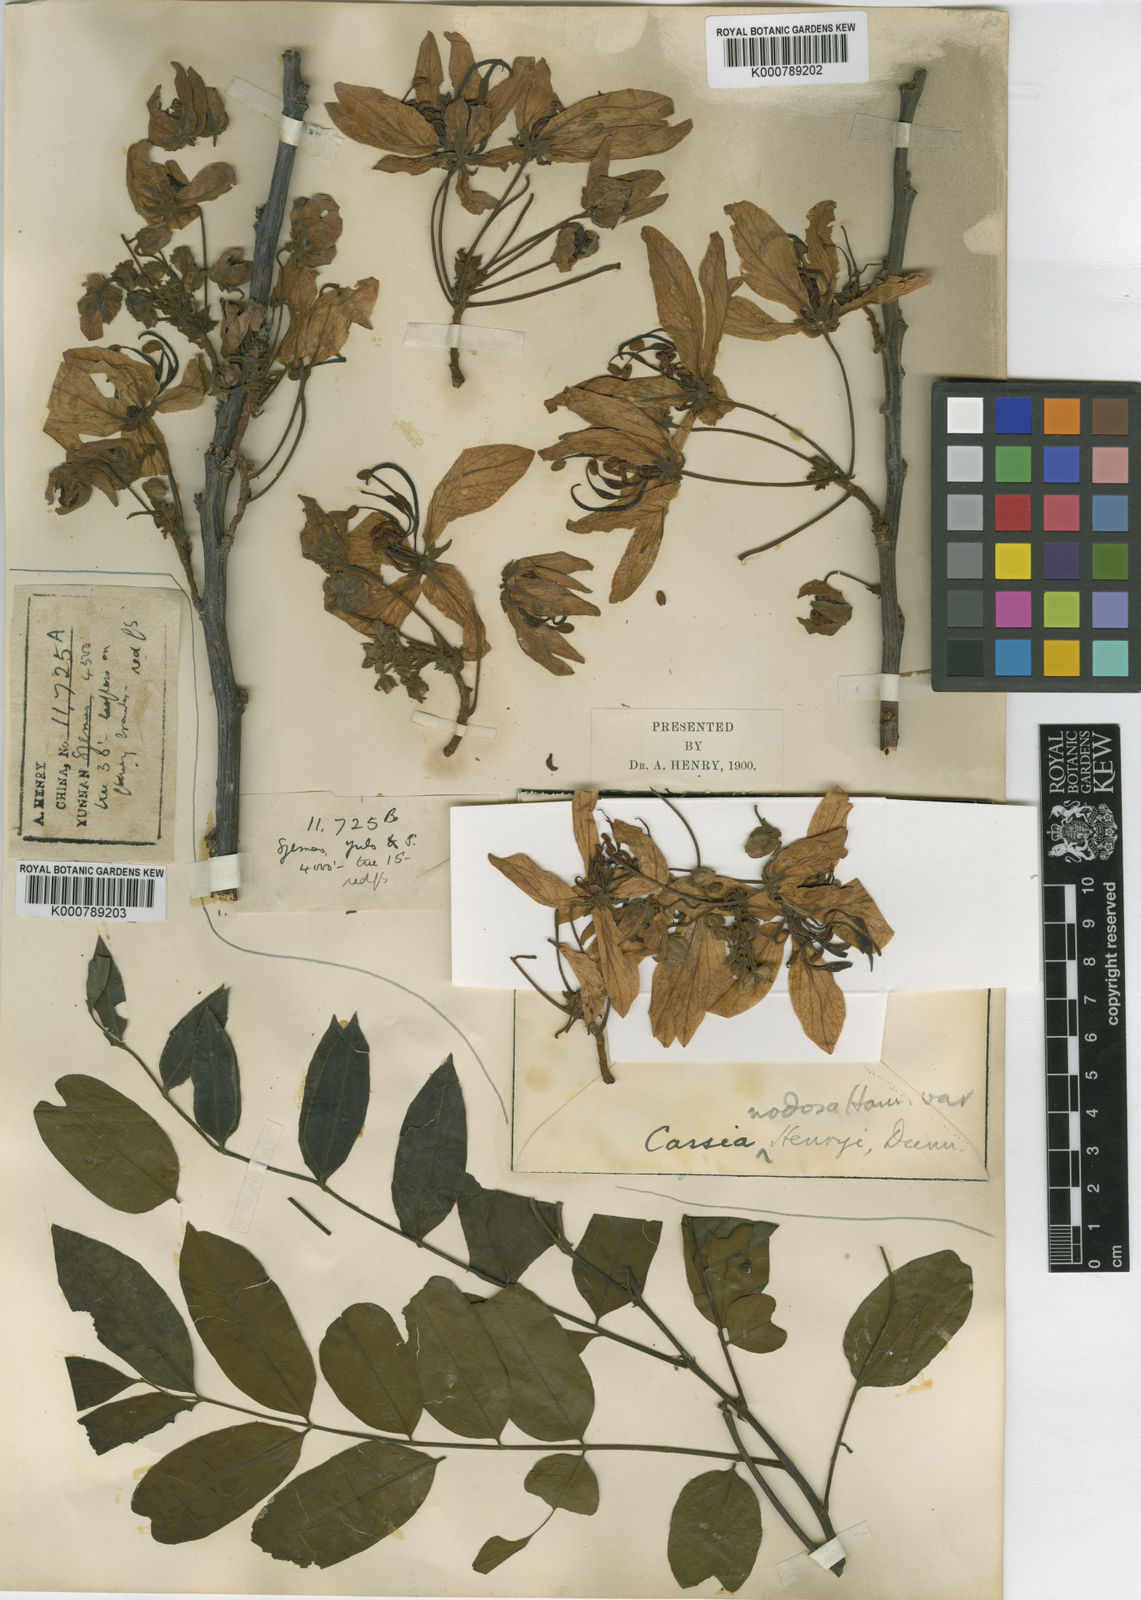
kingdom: Plantae
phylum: Tracheophyta
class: Magnoliopsida
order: Fabales
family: Fabaceae
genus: Cassia
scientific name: Cassia javanica
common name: Apple blossom
